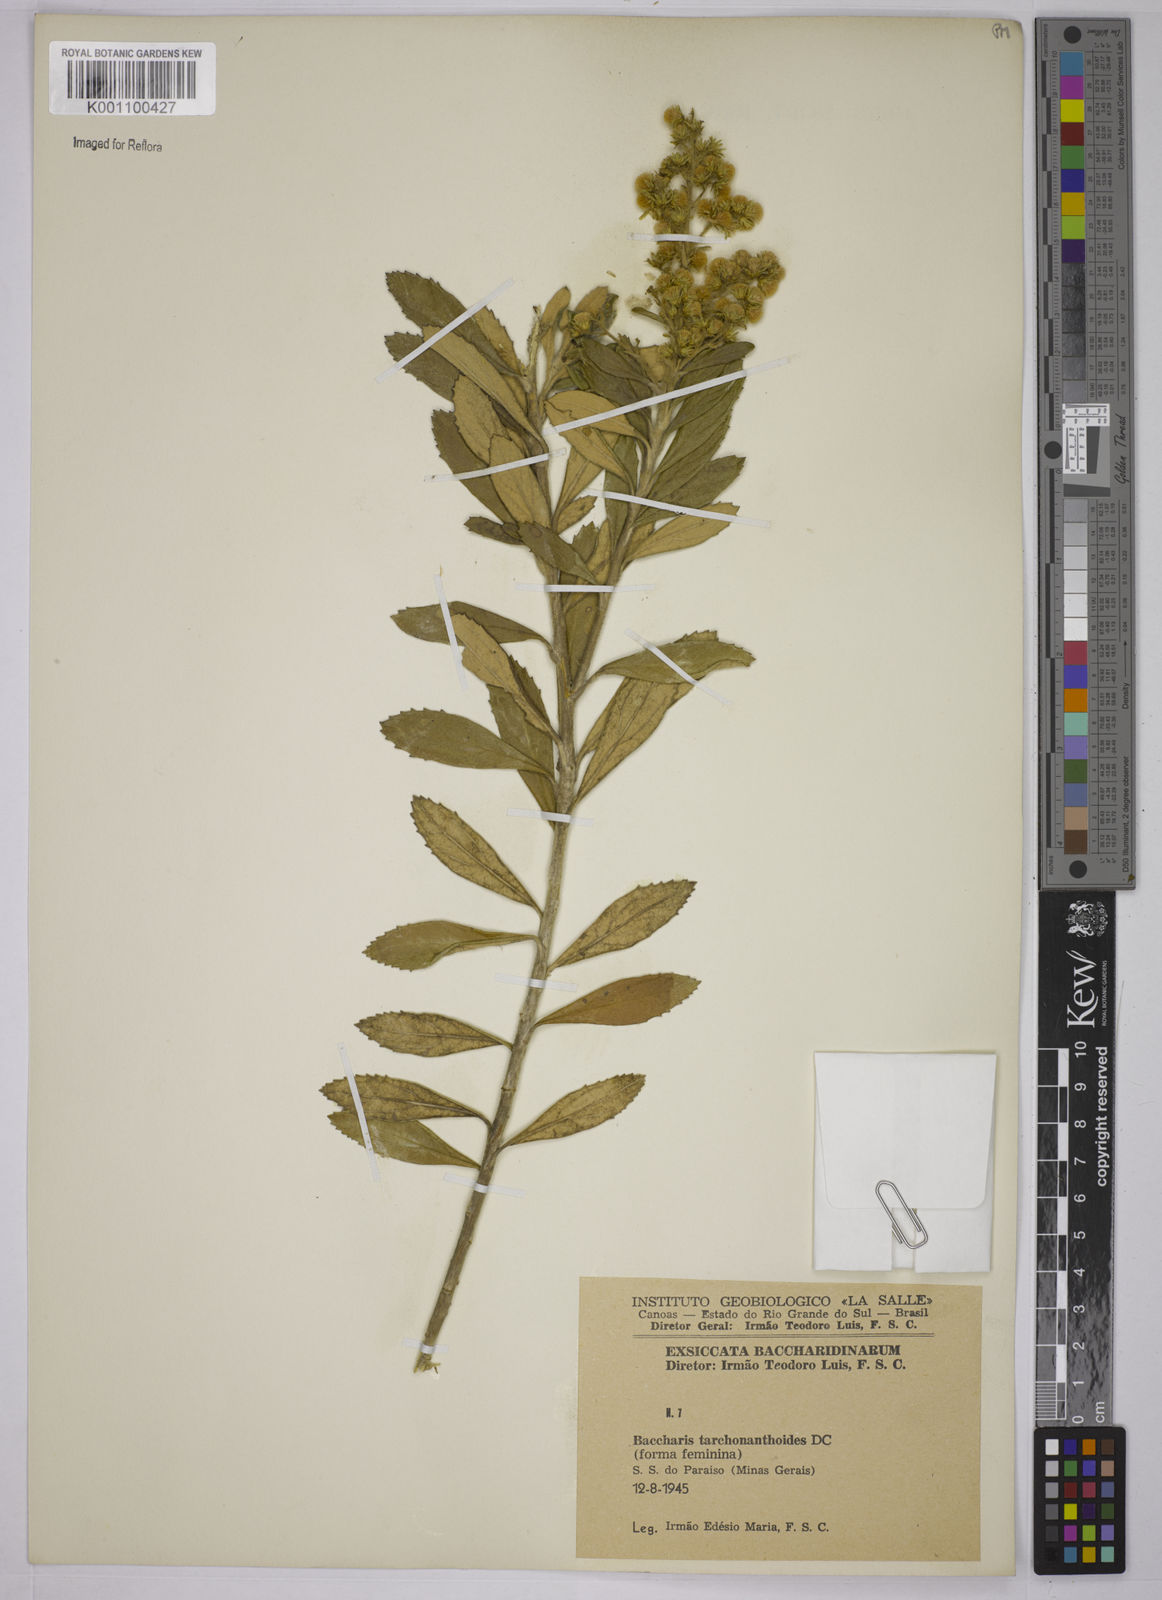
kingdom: Plantae
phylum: Tracheophyta
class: Magnoliopsida
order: Asterales
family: Asteraceae
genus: Baccharis
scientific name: Baccharis
